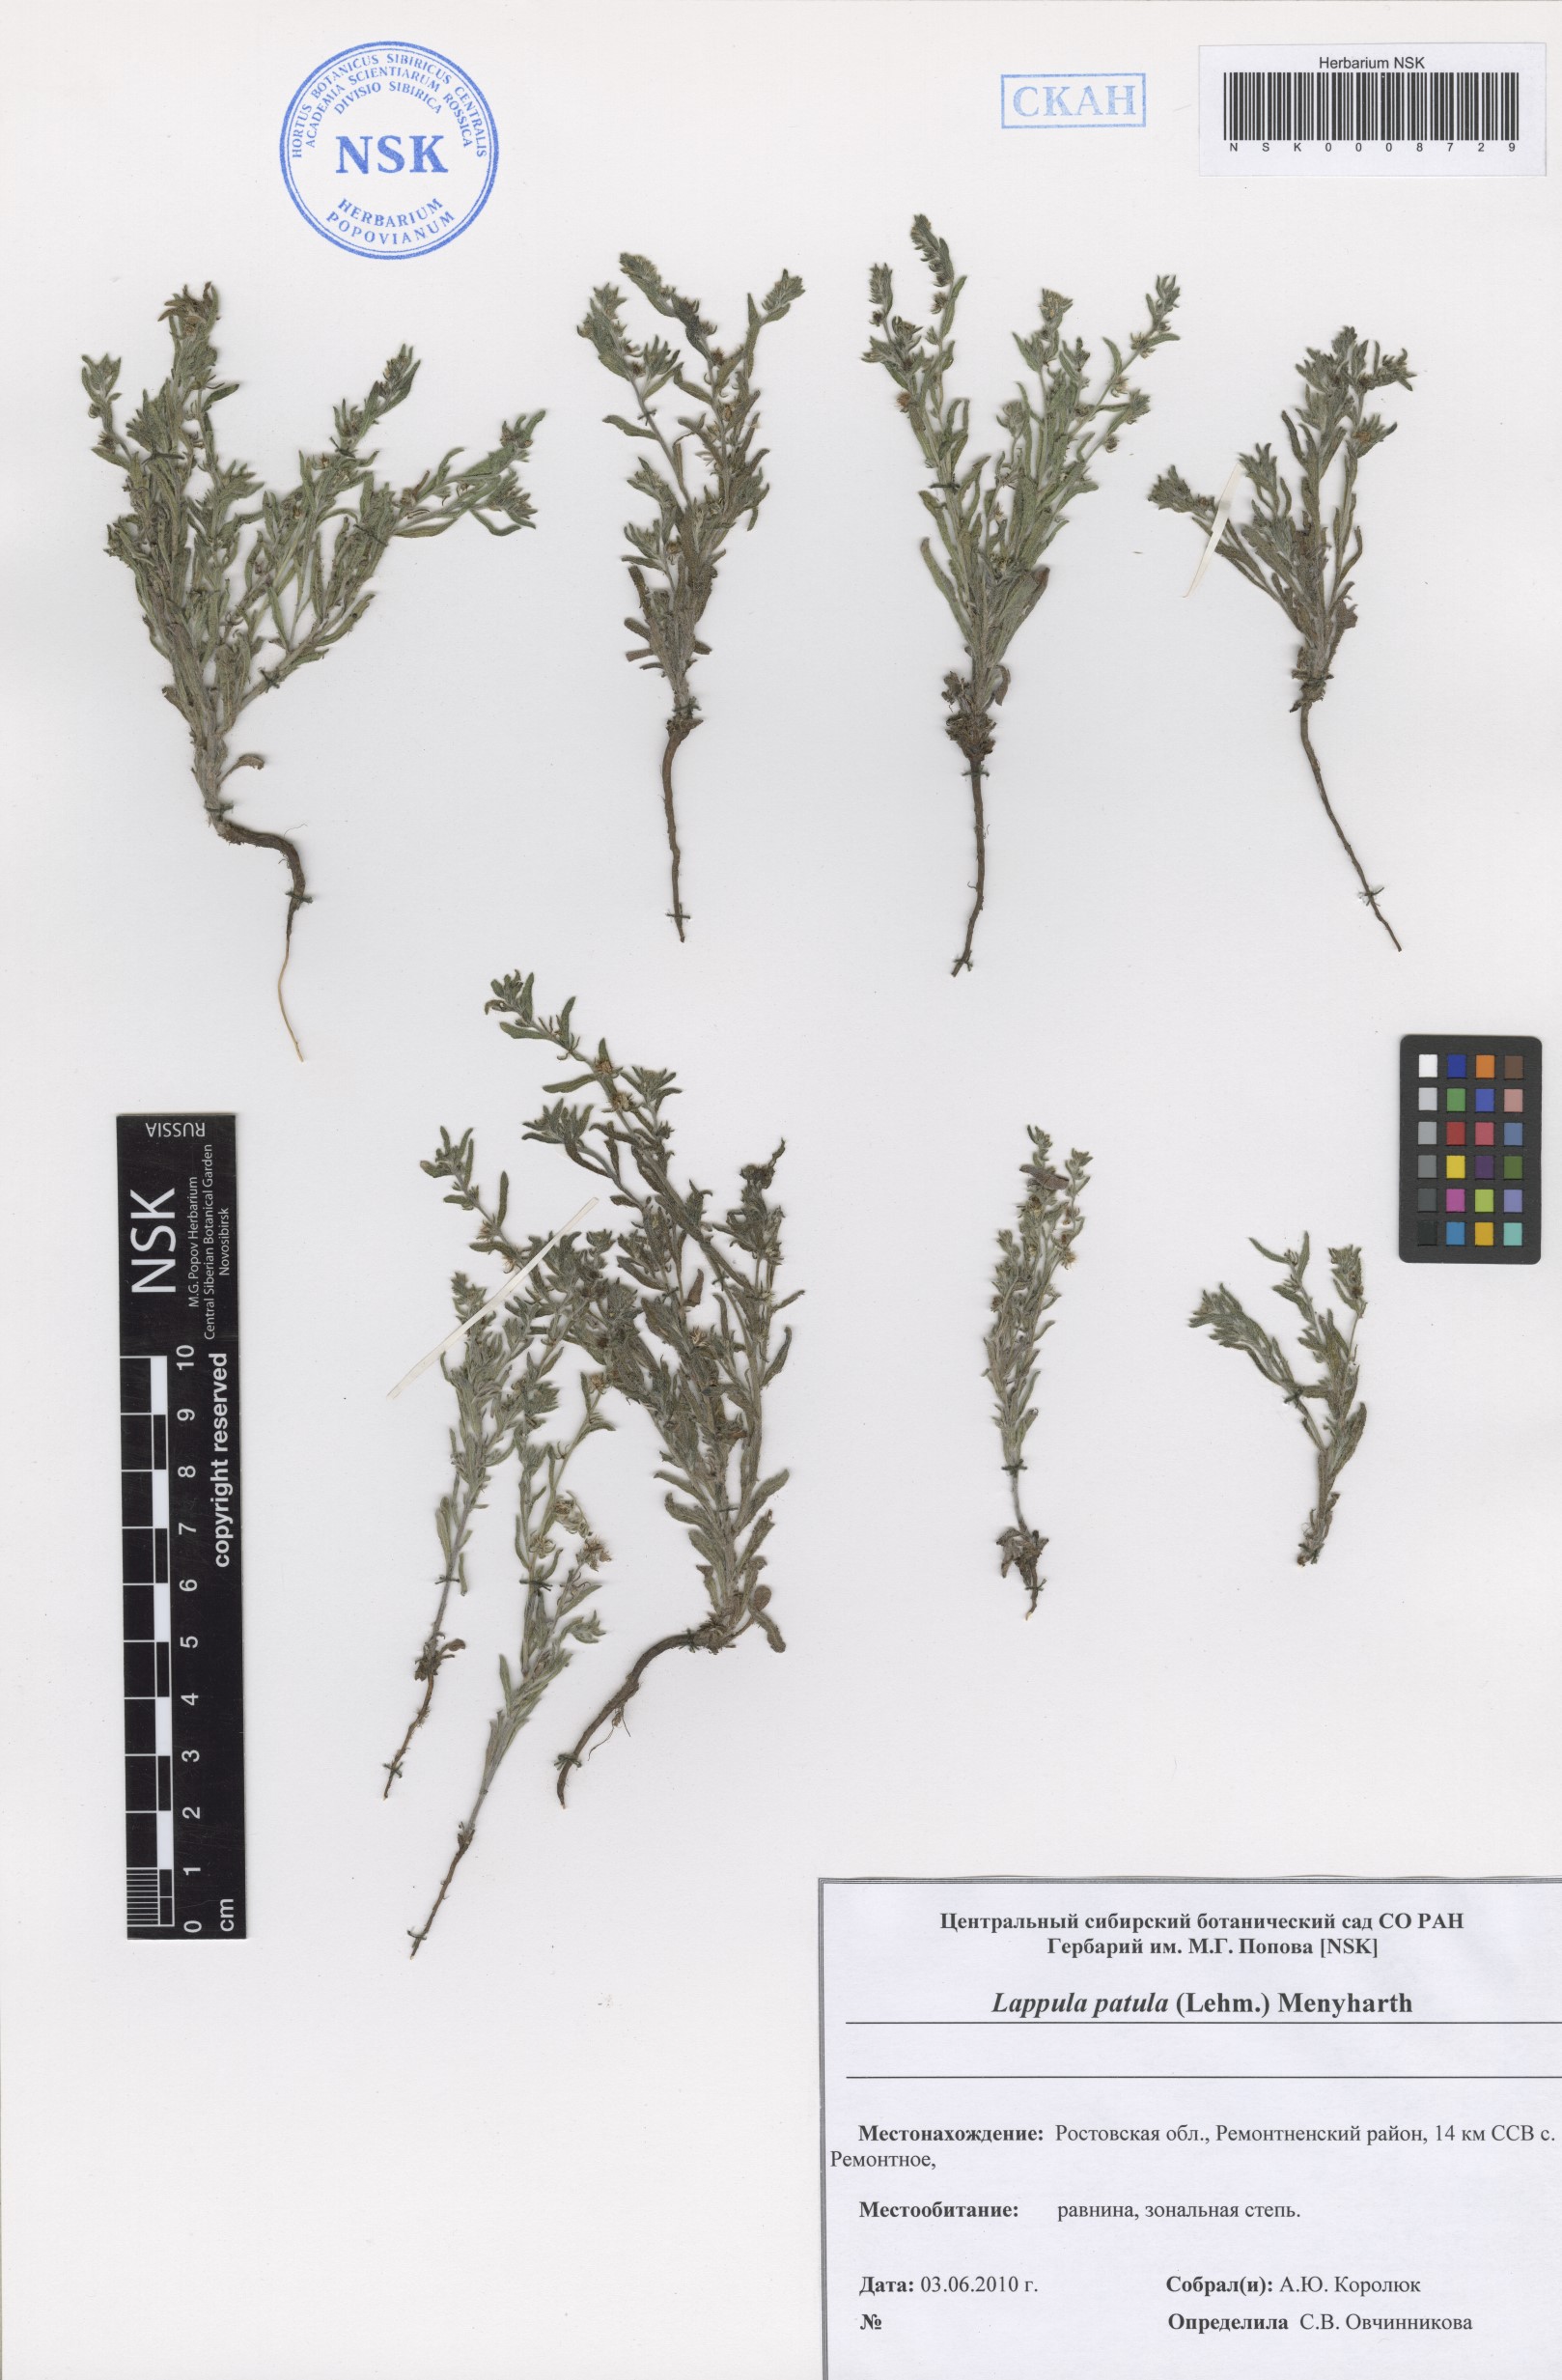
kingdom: Plantae
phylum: Tracheophyta
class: Magnoliopsida
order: Boraginales
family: Boraginaceae
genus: Lappula
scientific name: Lappula patula
